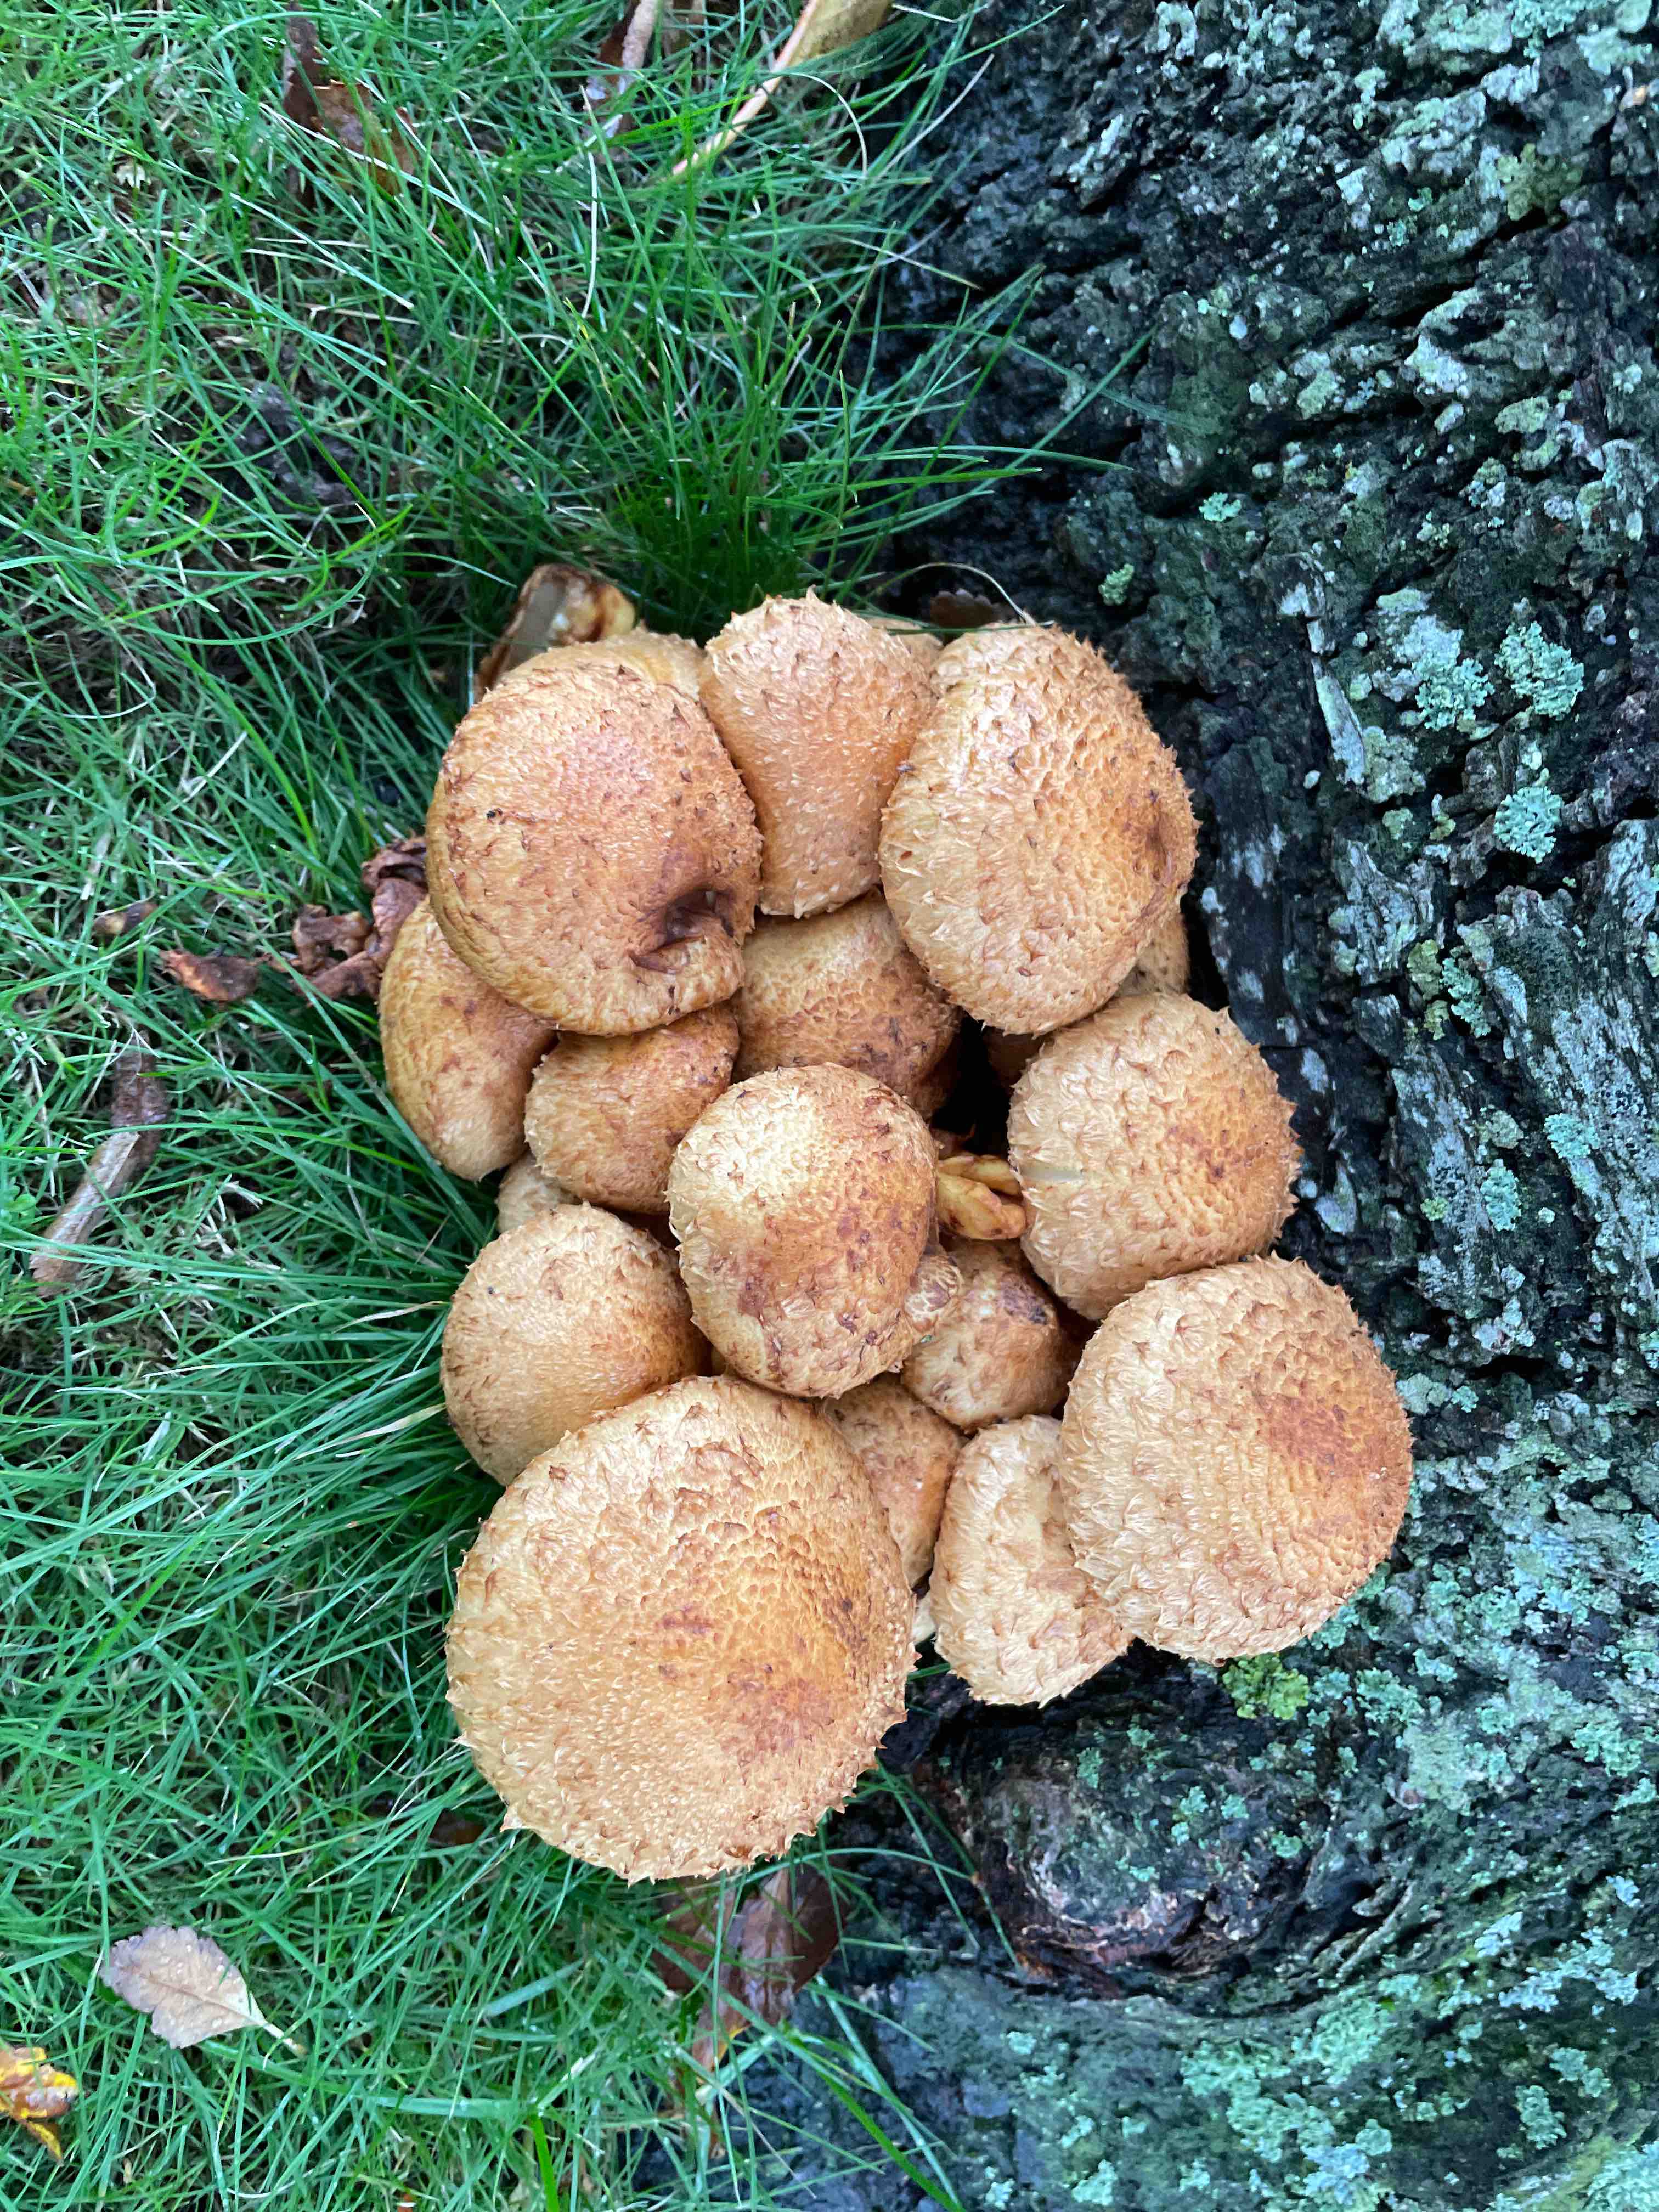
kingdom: Fungi
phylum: Basidiomycota
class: Agaricomycetes
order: Agaricales
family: Strophariaceae
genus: Pholiota
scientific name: Pholiota squarrosa
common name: krumskællet skælhat
